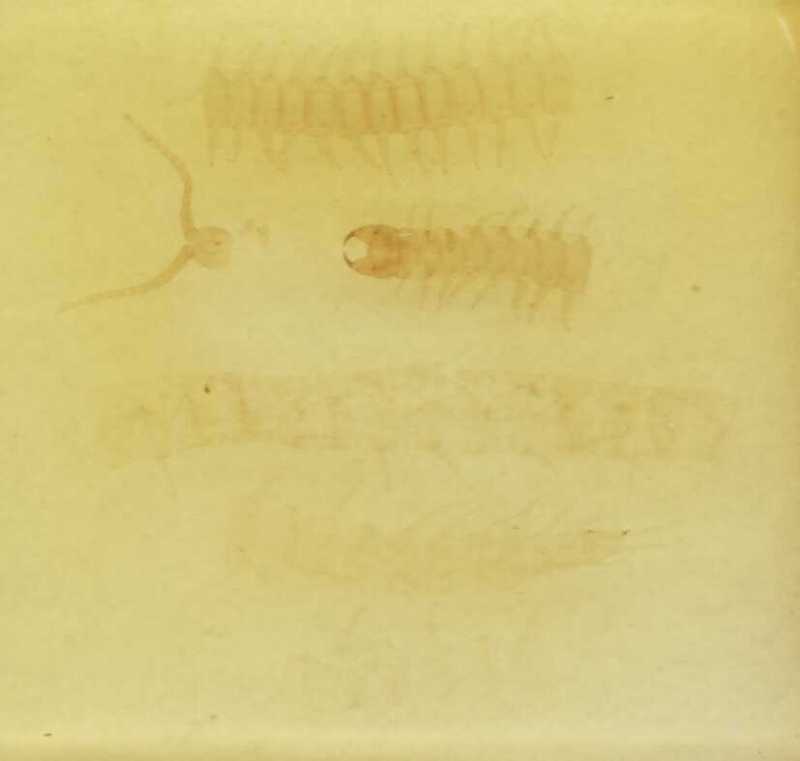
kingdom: Animalia
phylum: Arthropoda
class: Chilopoda
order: Geophilomorpha
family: Geophilidae
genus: Clinopodes
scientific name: Clinopodes flavidus
